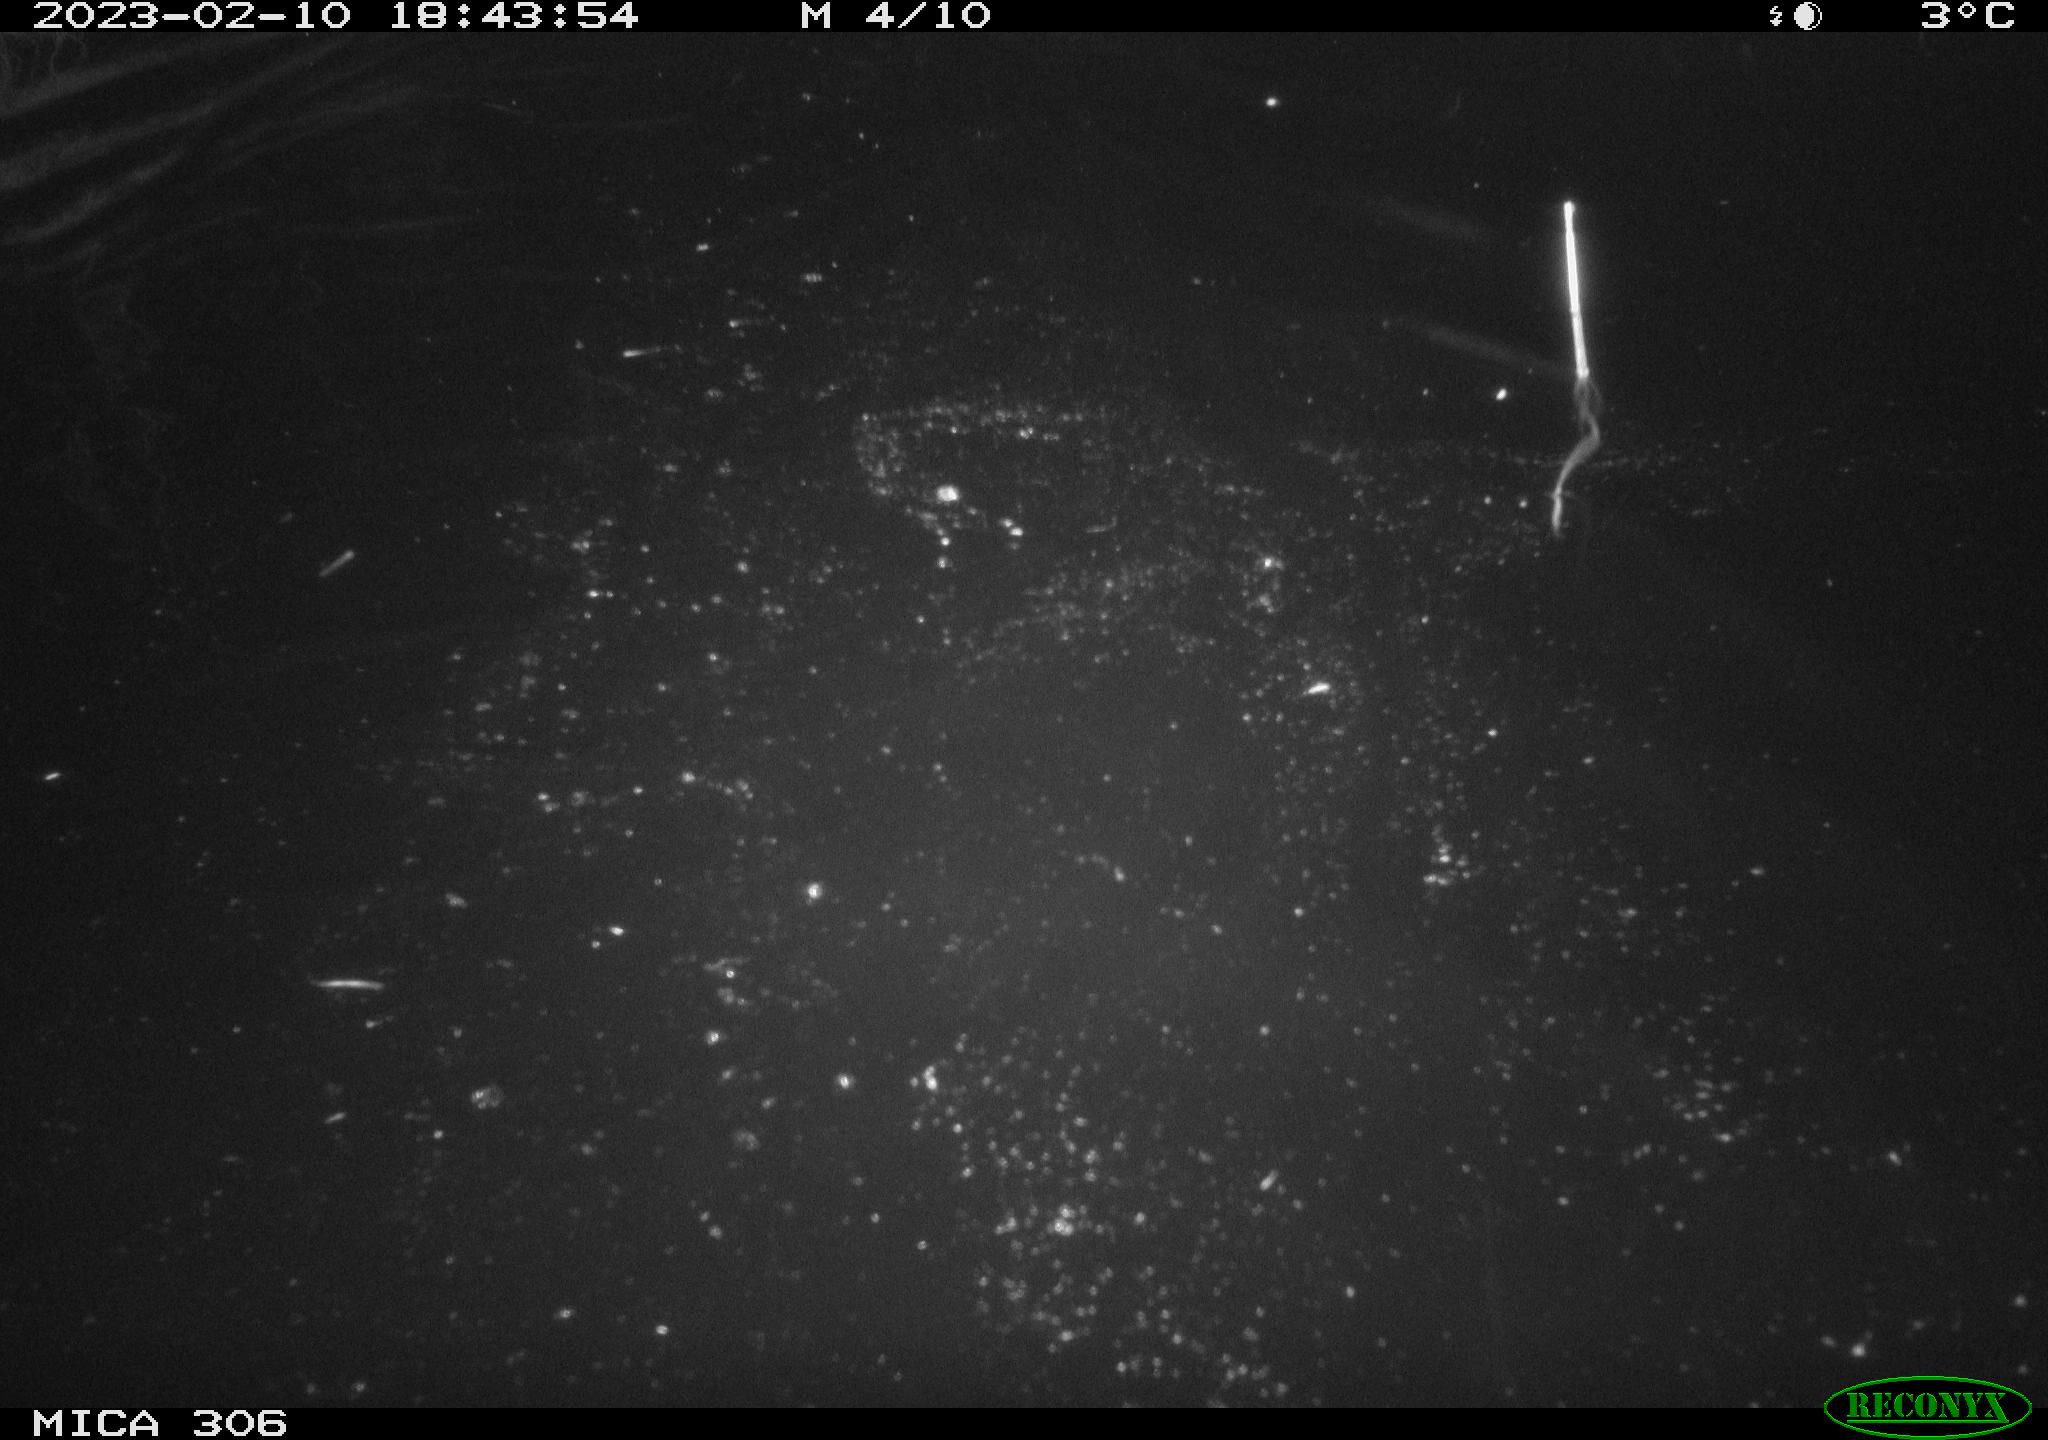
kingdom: Animalia
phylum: Chordata
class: Mammalia
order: Rodentia
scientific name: Rodentia
